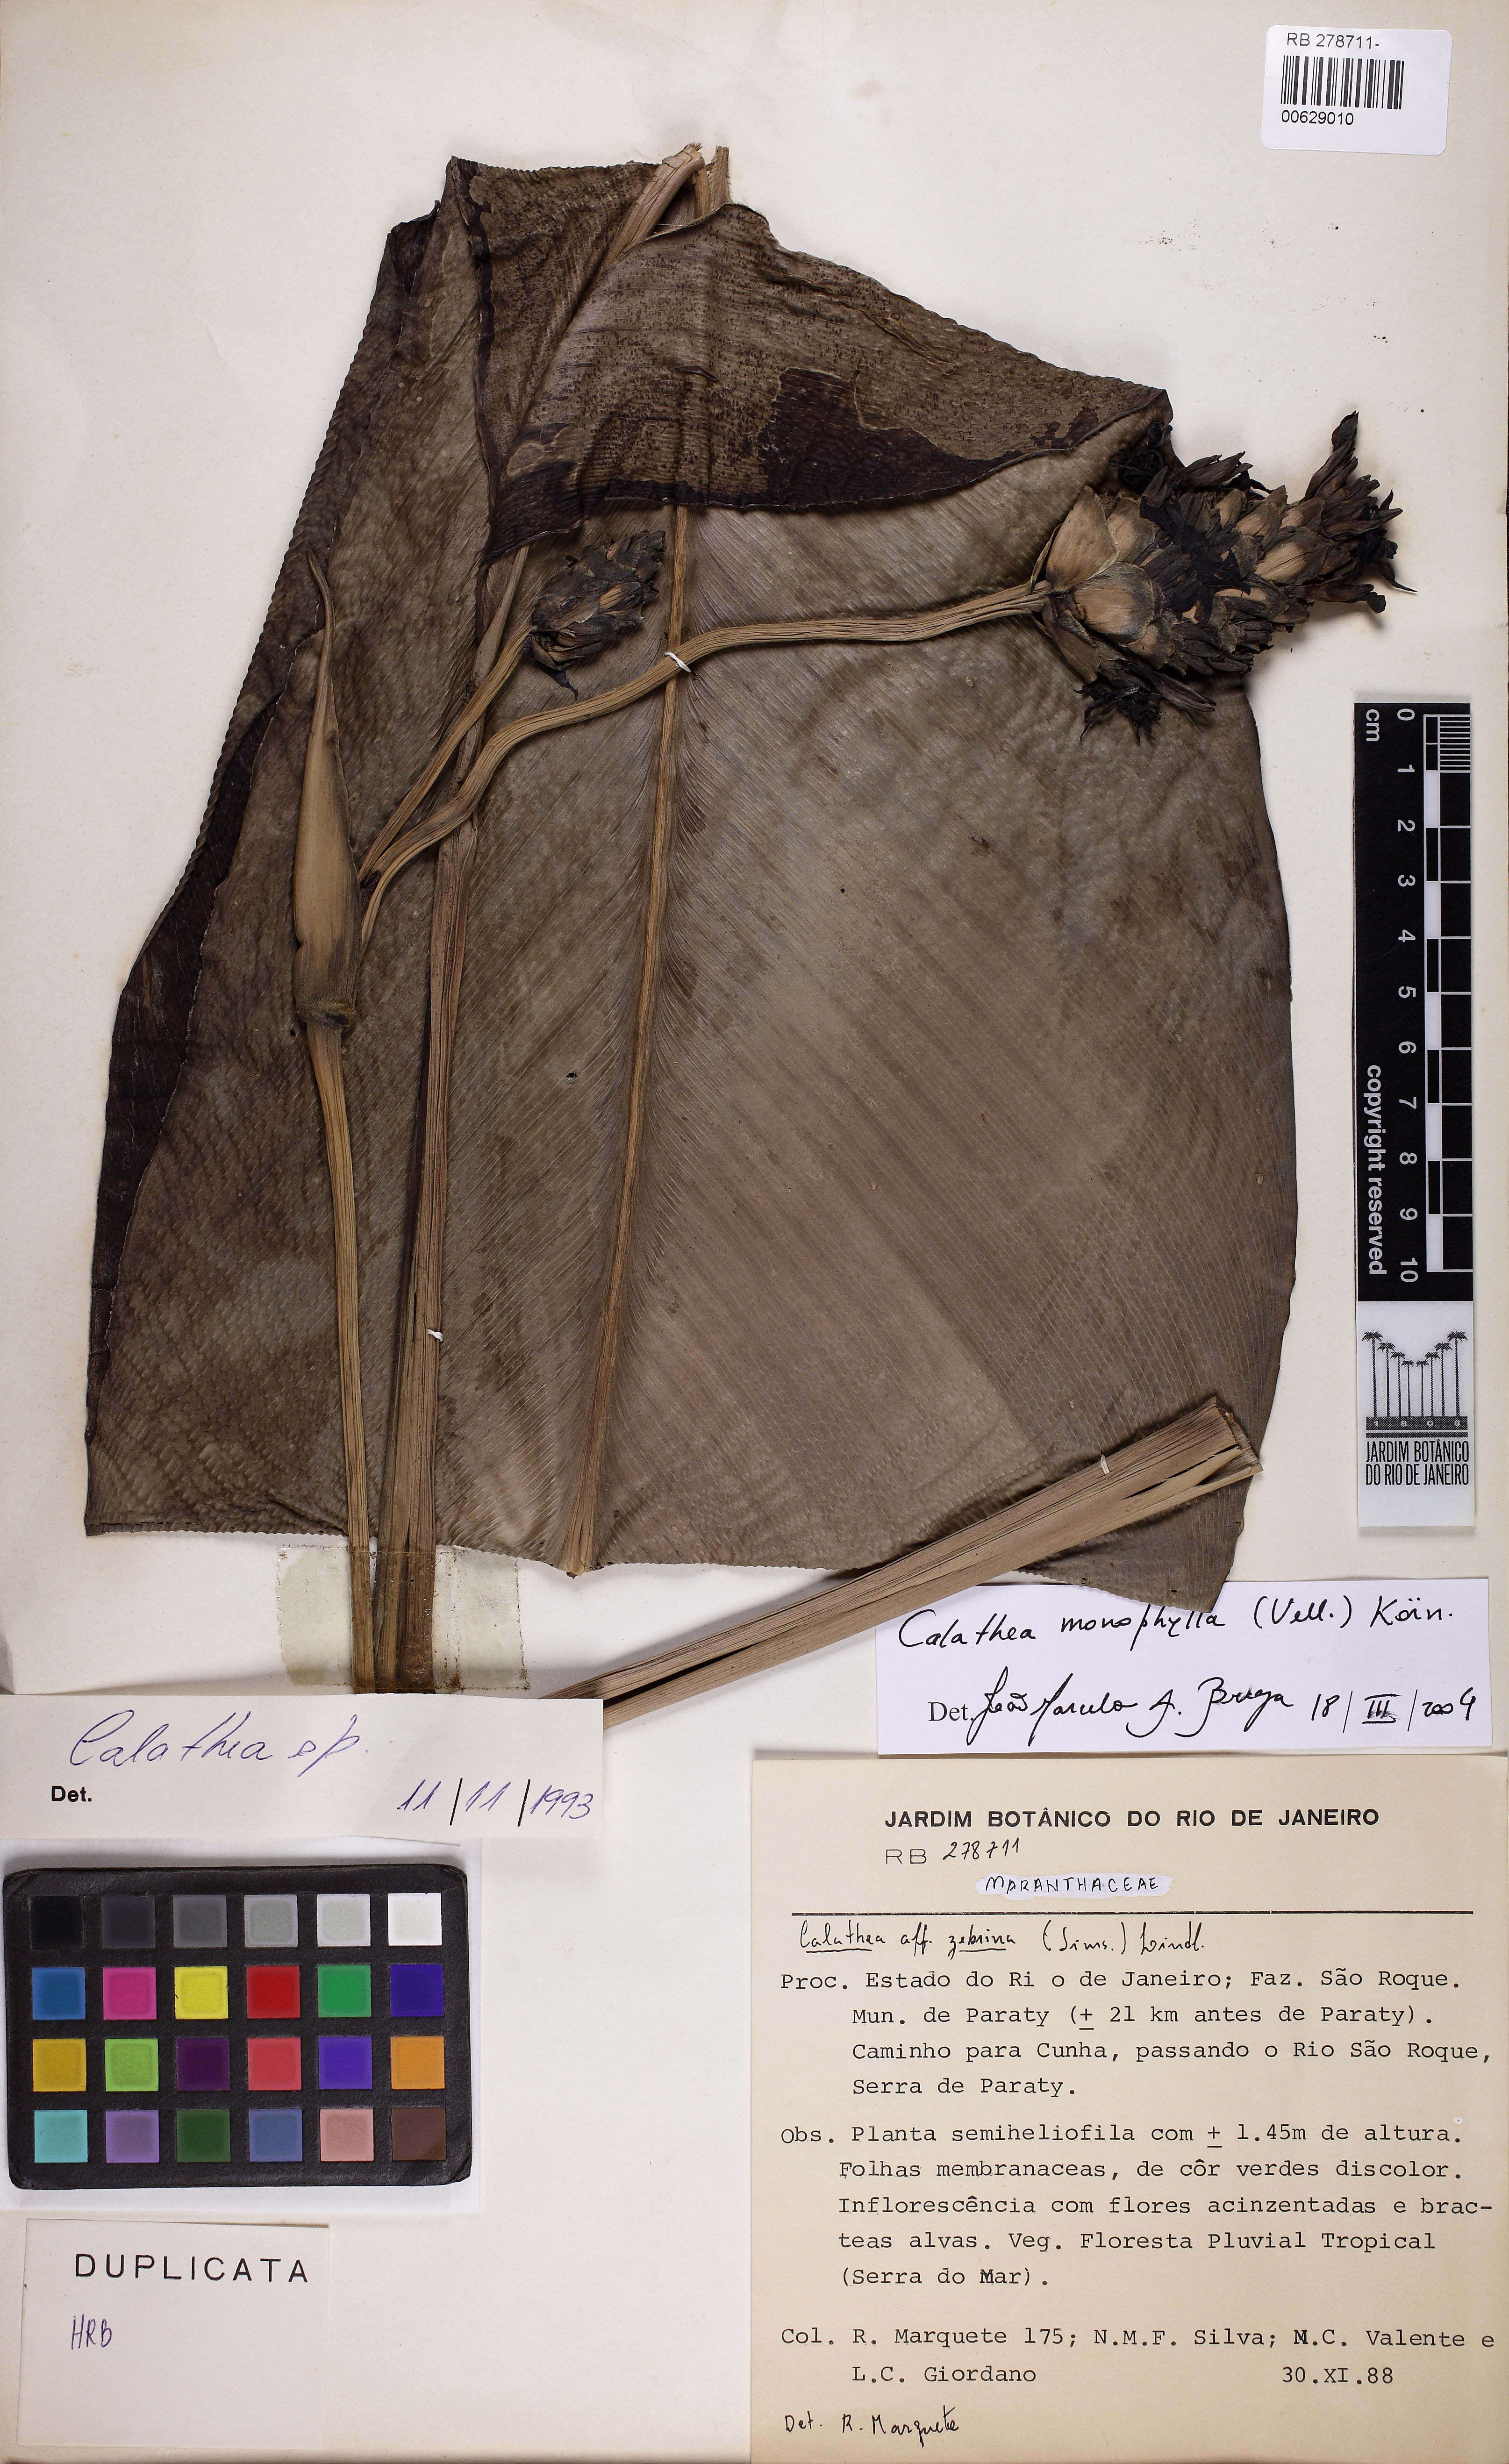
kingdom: Plantae
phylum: Tracheophyta
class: Liliopsida
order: Zingiberales
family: Marantaceae
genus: Goeppertia
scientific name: Goeppertia monophylla
